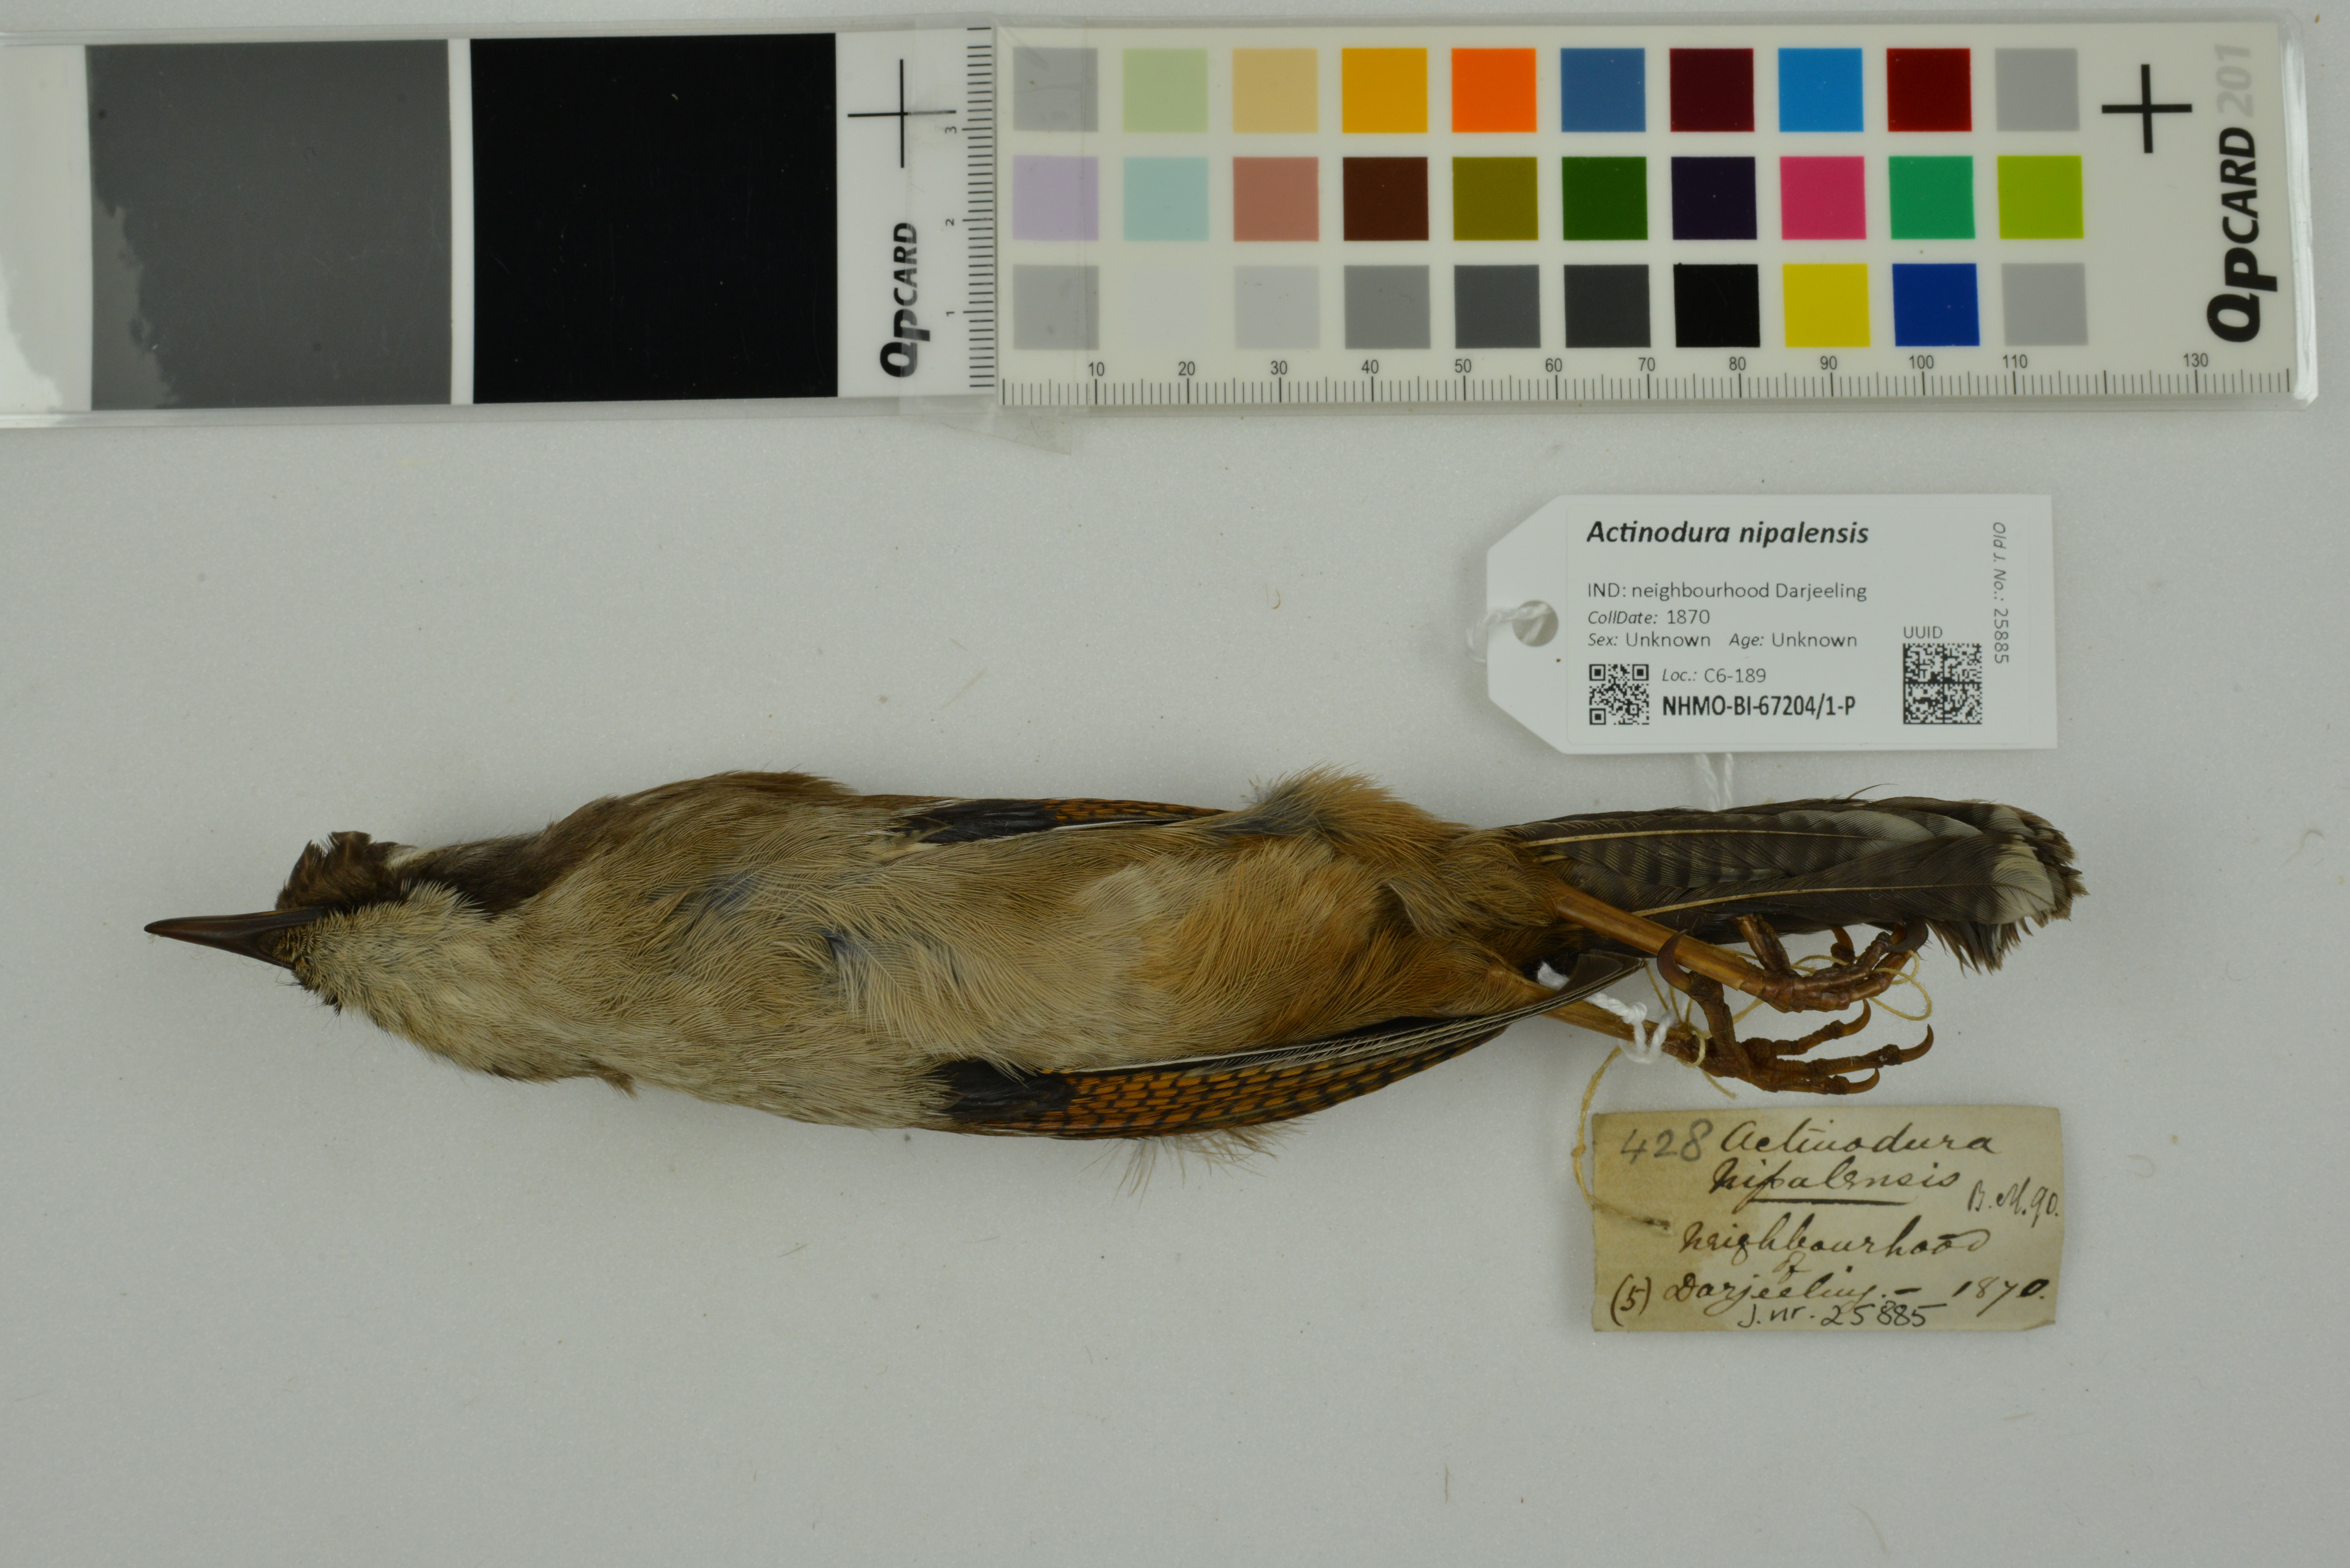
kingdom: Animalia
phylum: Chordata
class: Aves
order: Passeriformes
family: Leiothrichidae
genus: Actinodura
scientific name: Actinodura nipalensis
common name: Hoary-throated barwing
